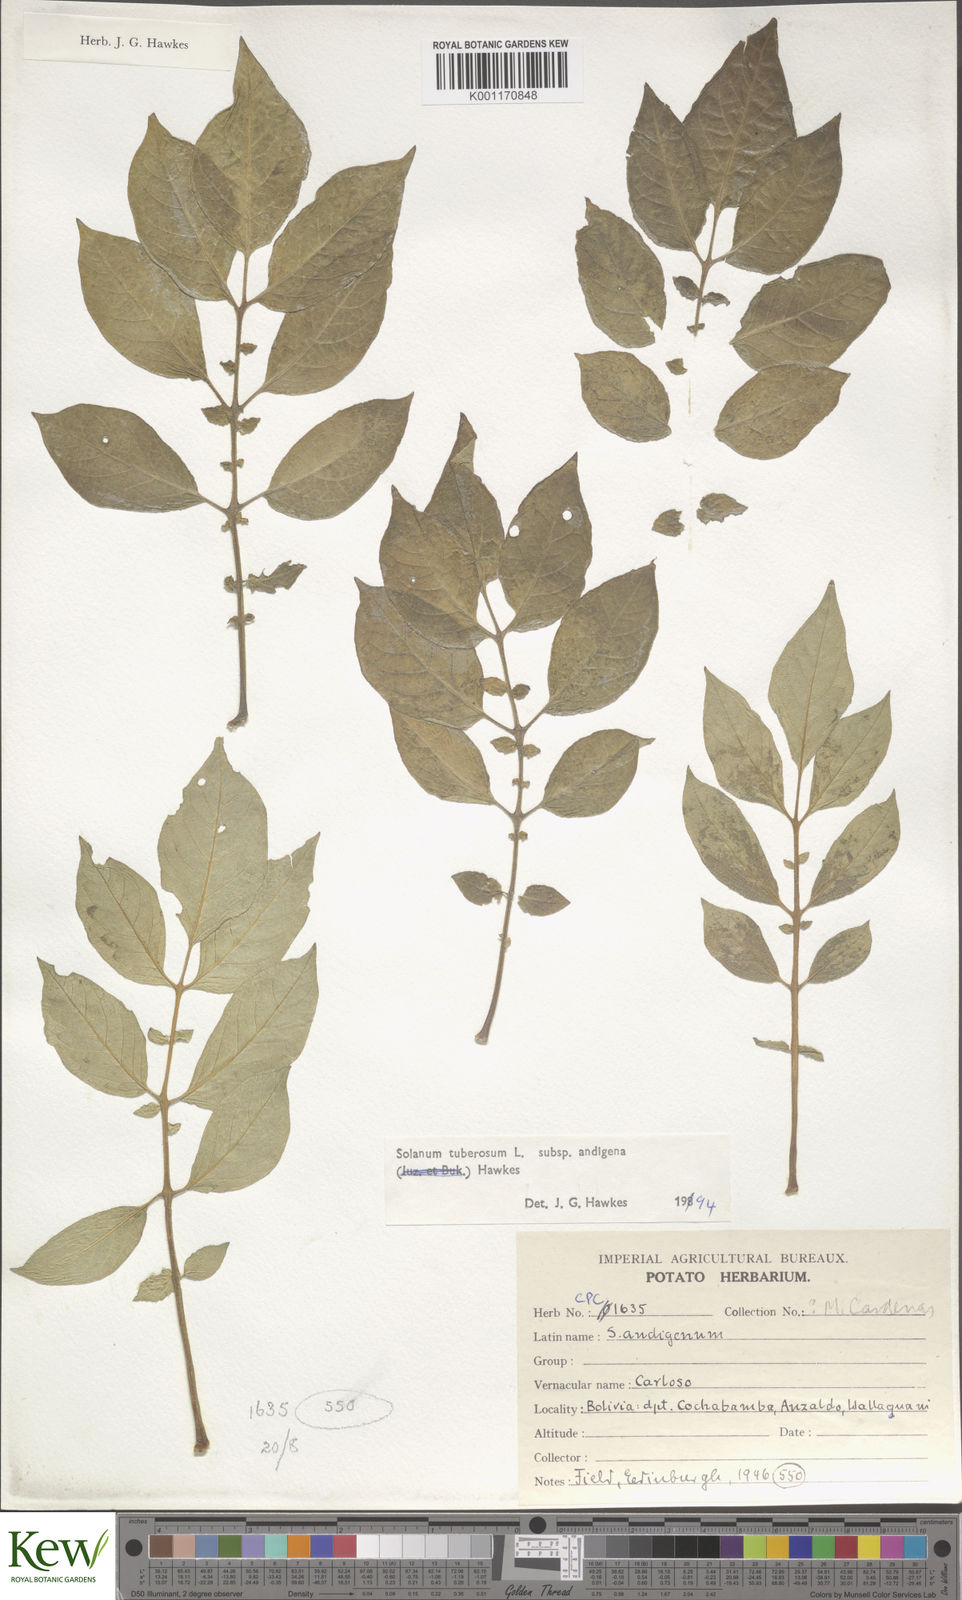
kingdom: Plantae
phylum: Tracheophyta
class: Magnoliopsida
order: Solanales
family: Solanaceae
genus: Solanum
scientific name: Solanum tuberosum
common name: Potato
